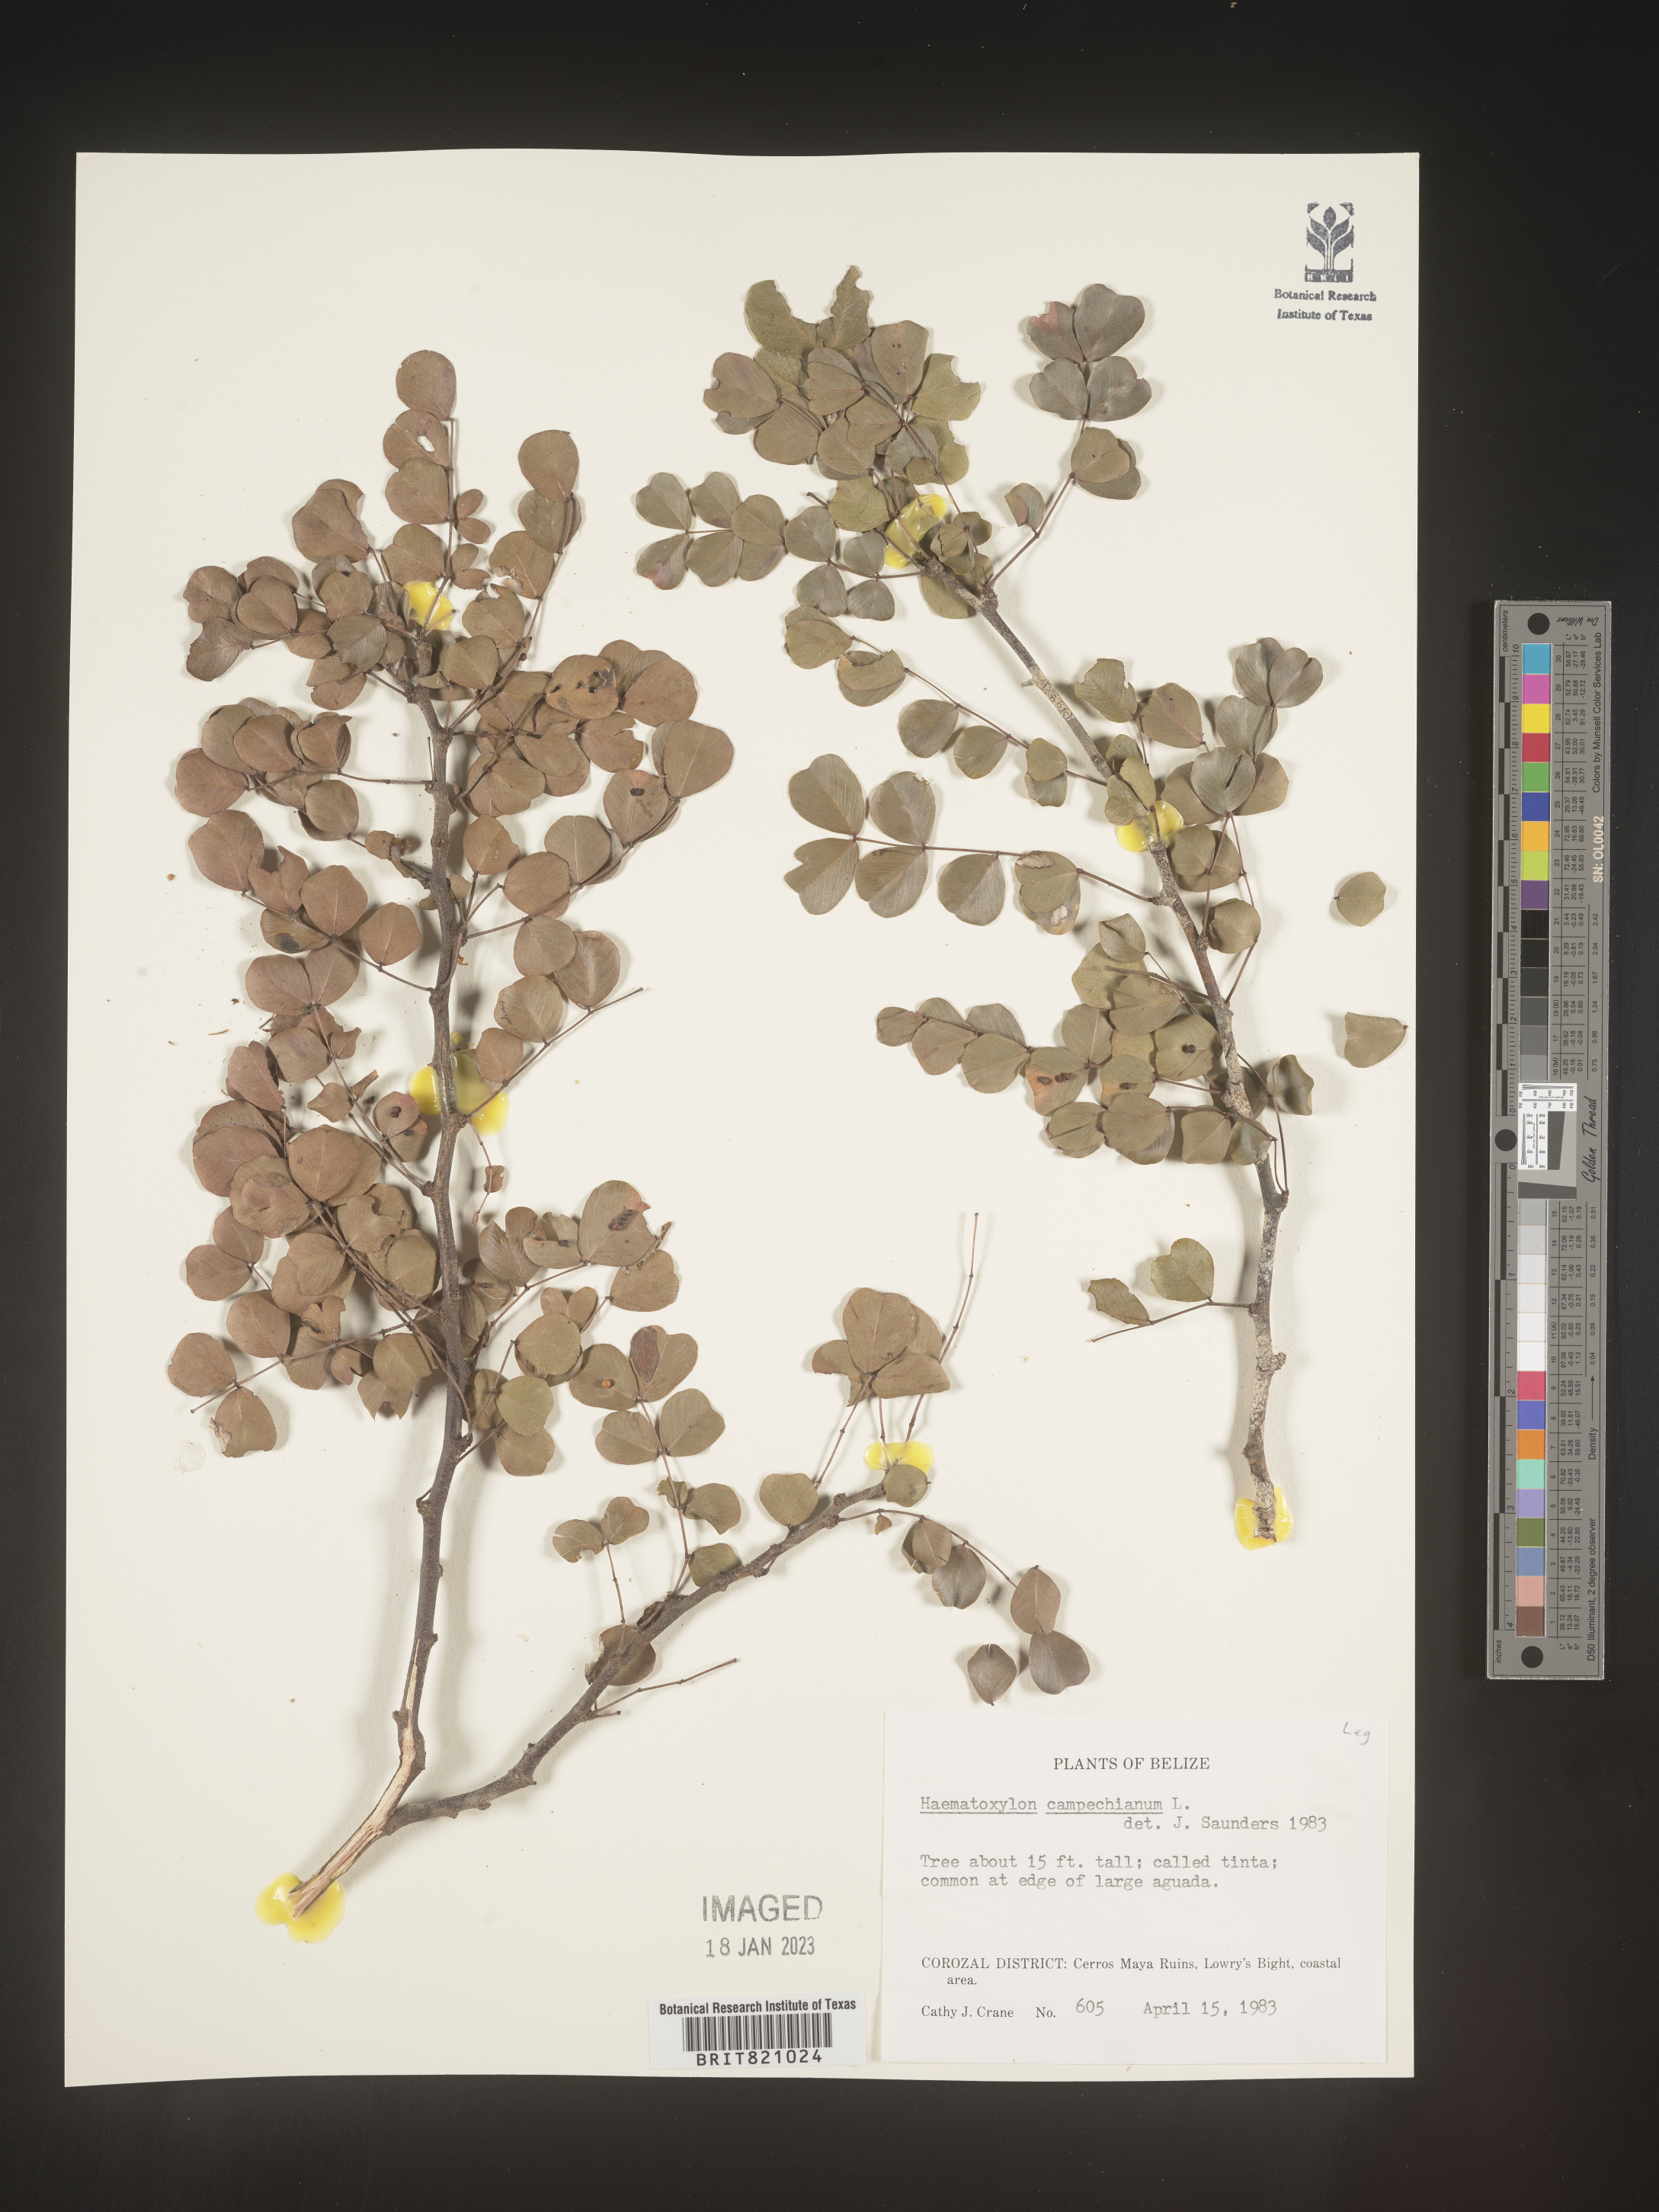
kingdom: Plantae
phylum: Tracheophyta
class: Magnoliopsida
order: Fabales
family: Fabaceae
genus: Haematoxylum
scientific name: Haematoxylum
